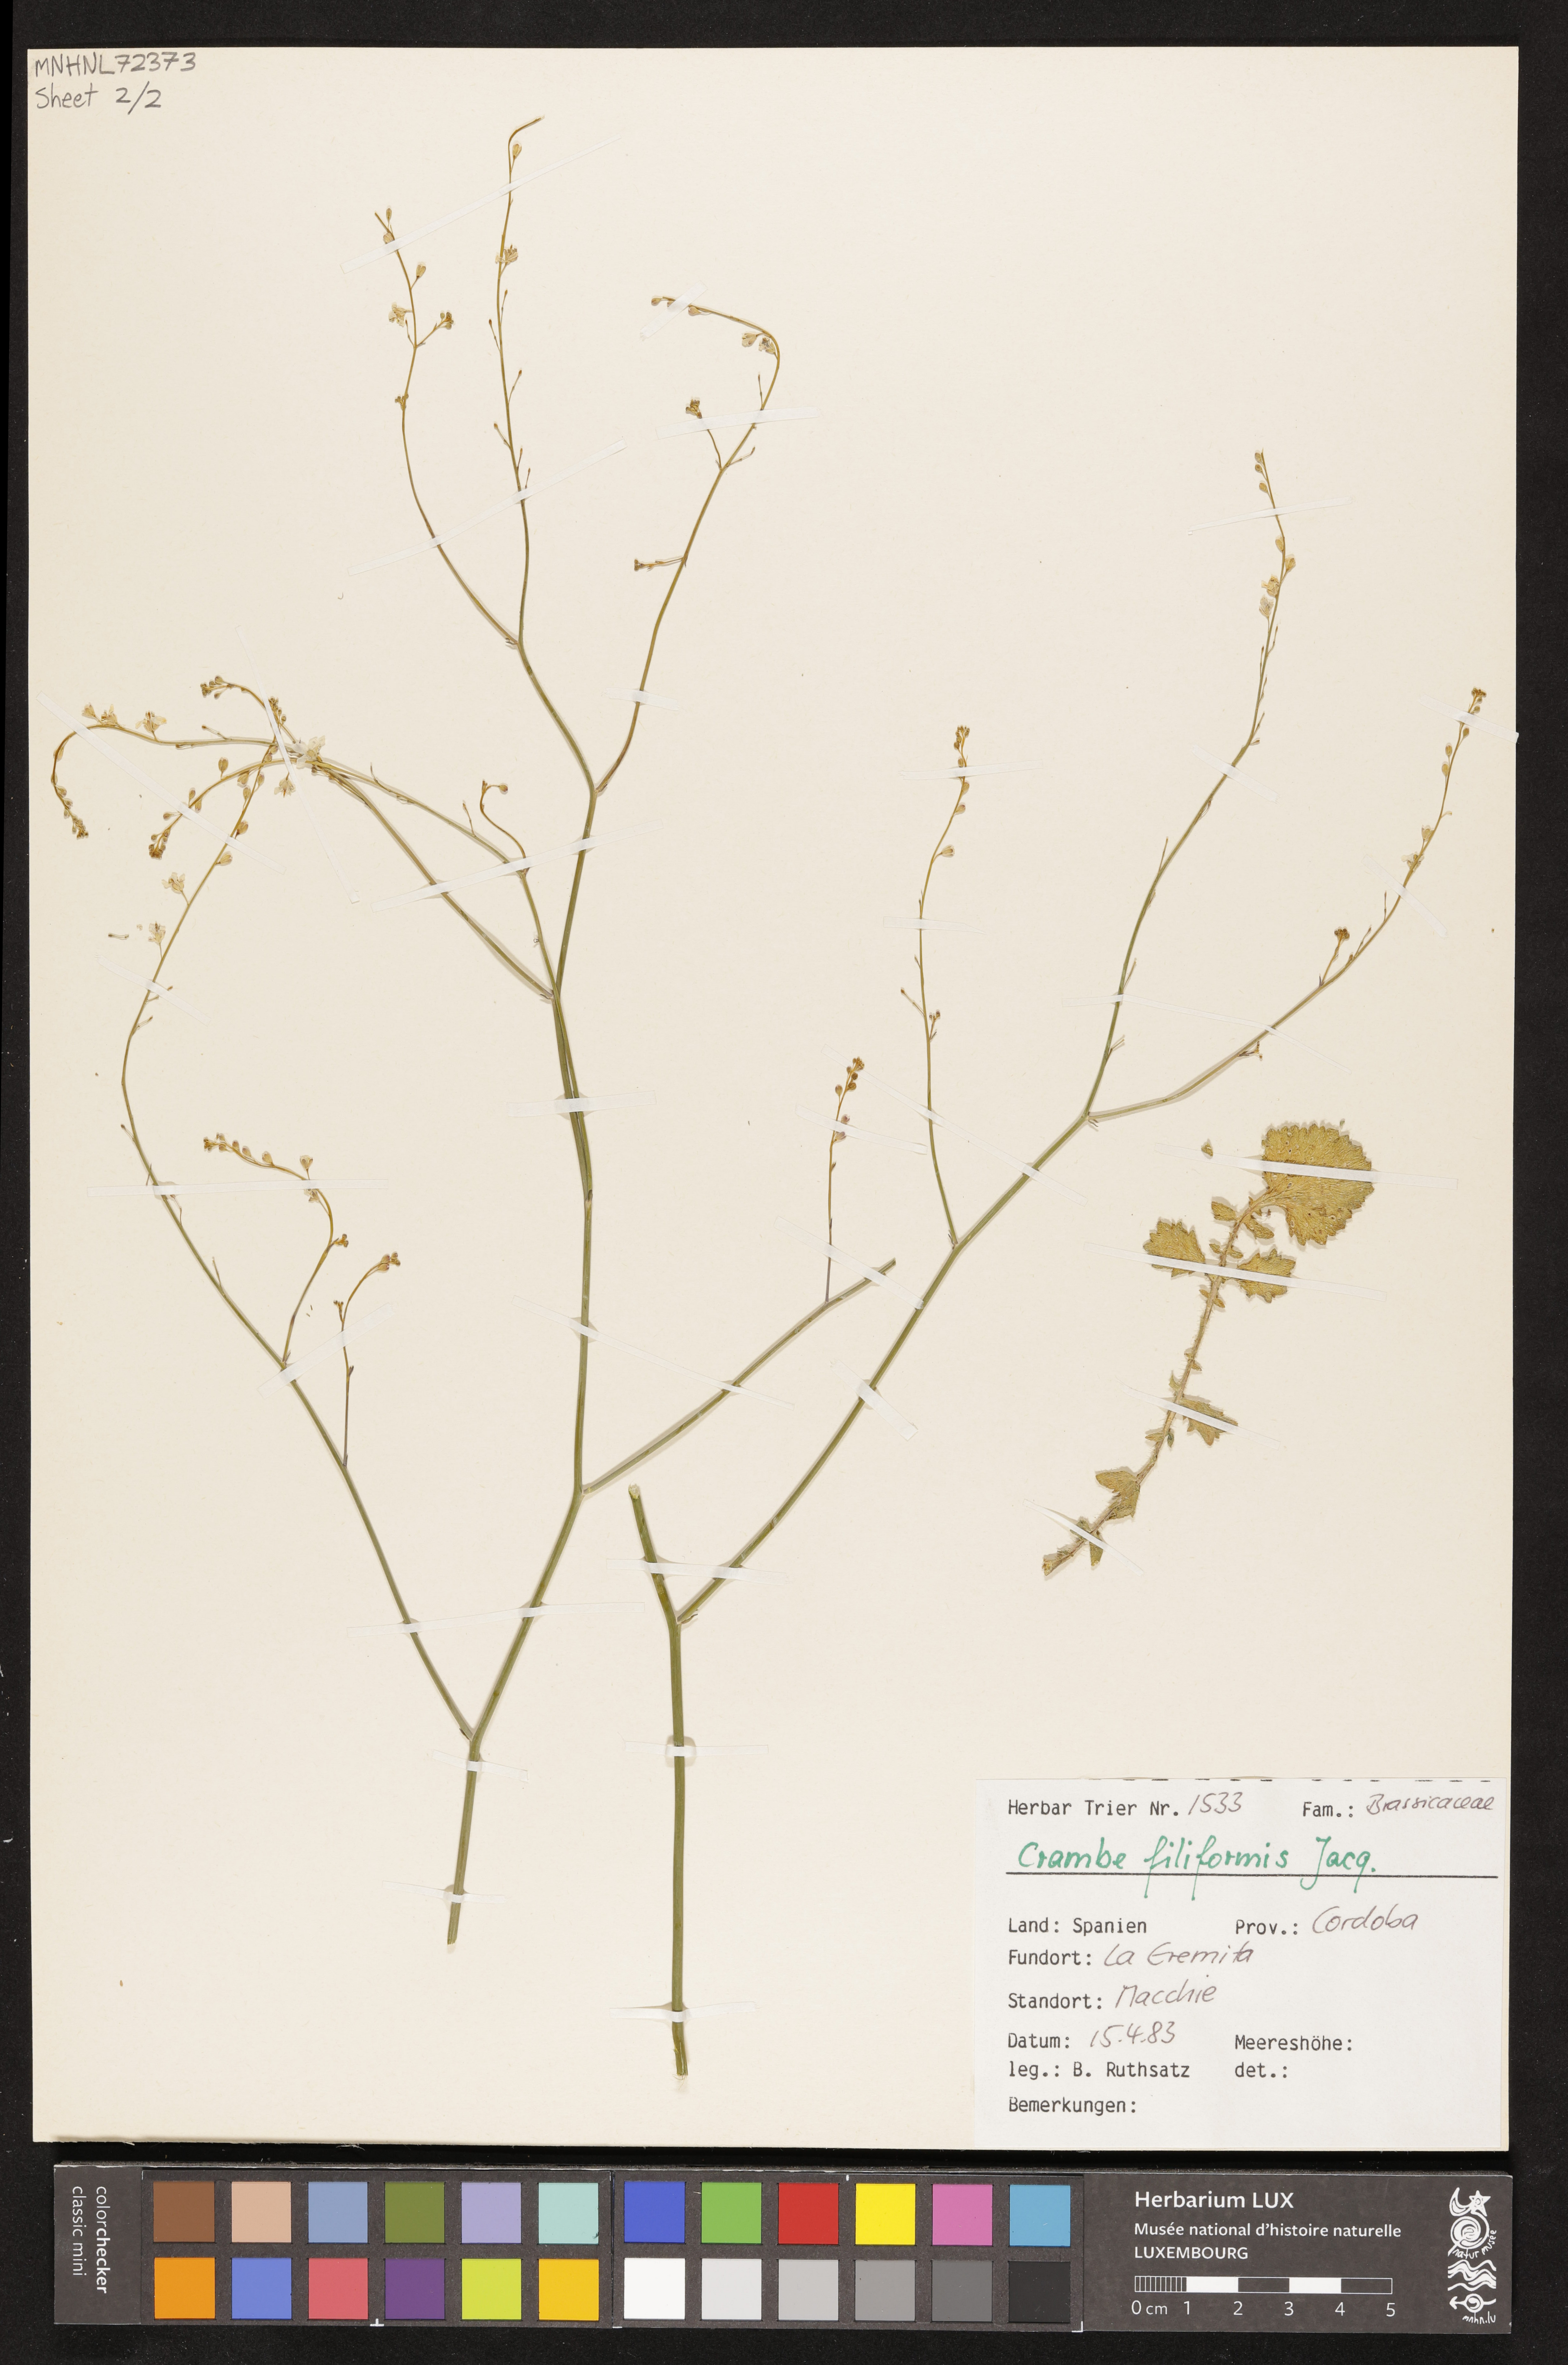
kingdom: Plantae
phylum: Tracheophyta
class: Magnoliopsida
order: Brassicales
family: Brassicaceae
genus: Crambe
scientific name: Crambe filiformis
